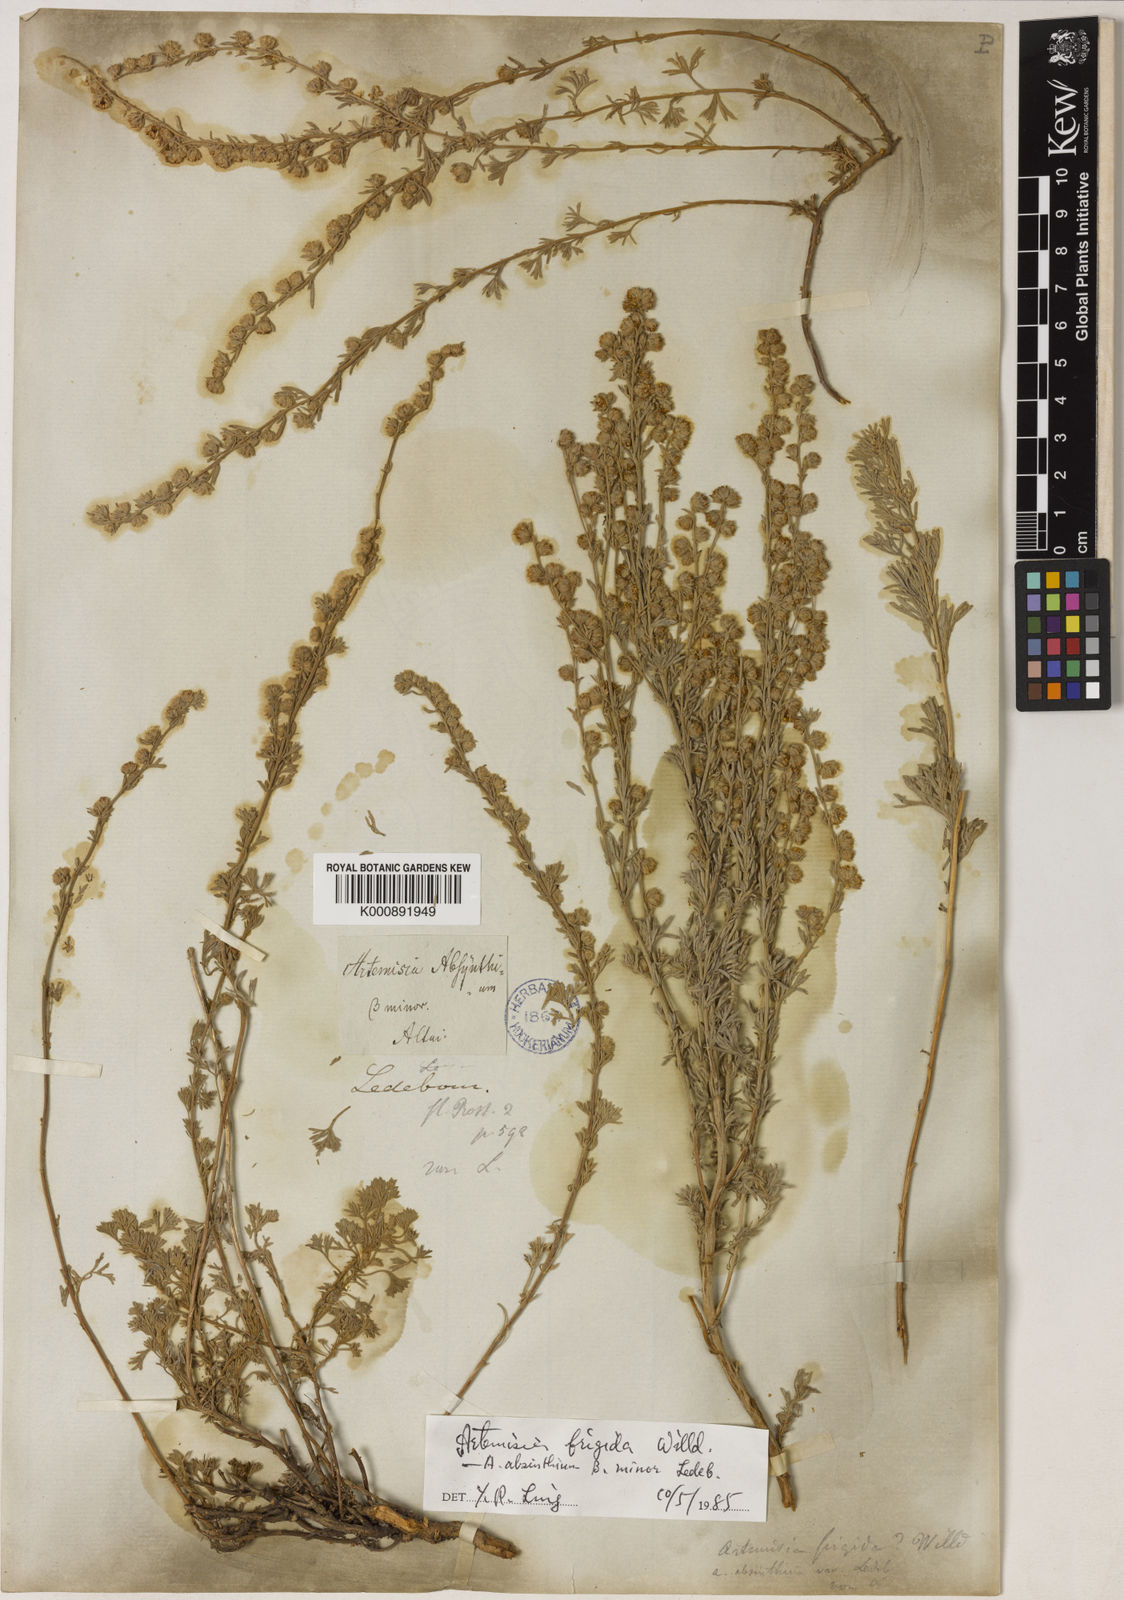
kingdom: Plantae
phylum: Tracheophyta
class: Magnoliopsida
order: Asterales
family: Asteraceae
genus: Artemisia
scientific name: Artemisia frigida
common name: Prairie sagewort
